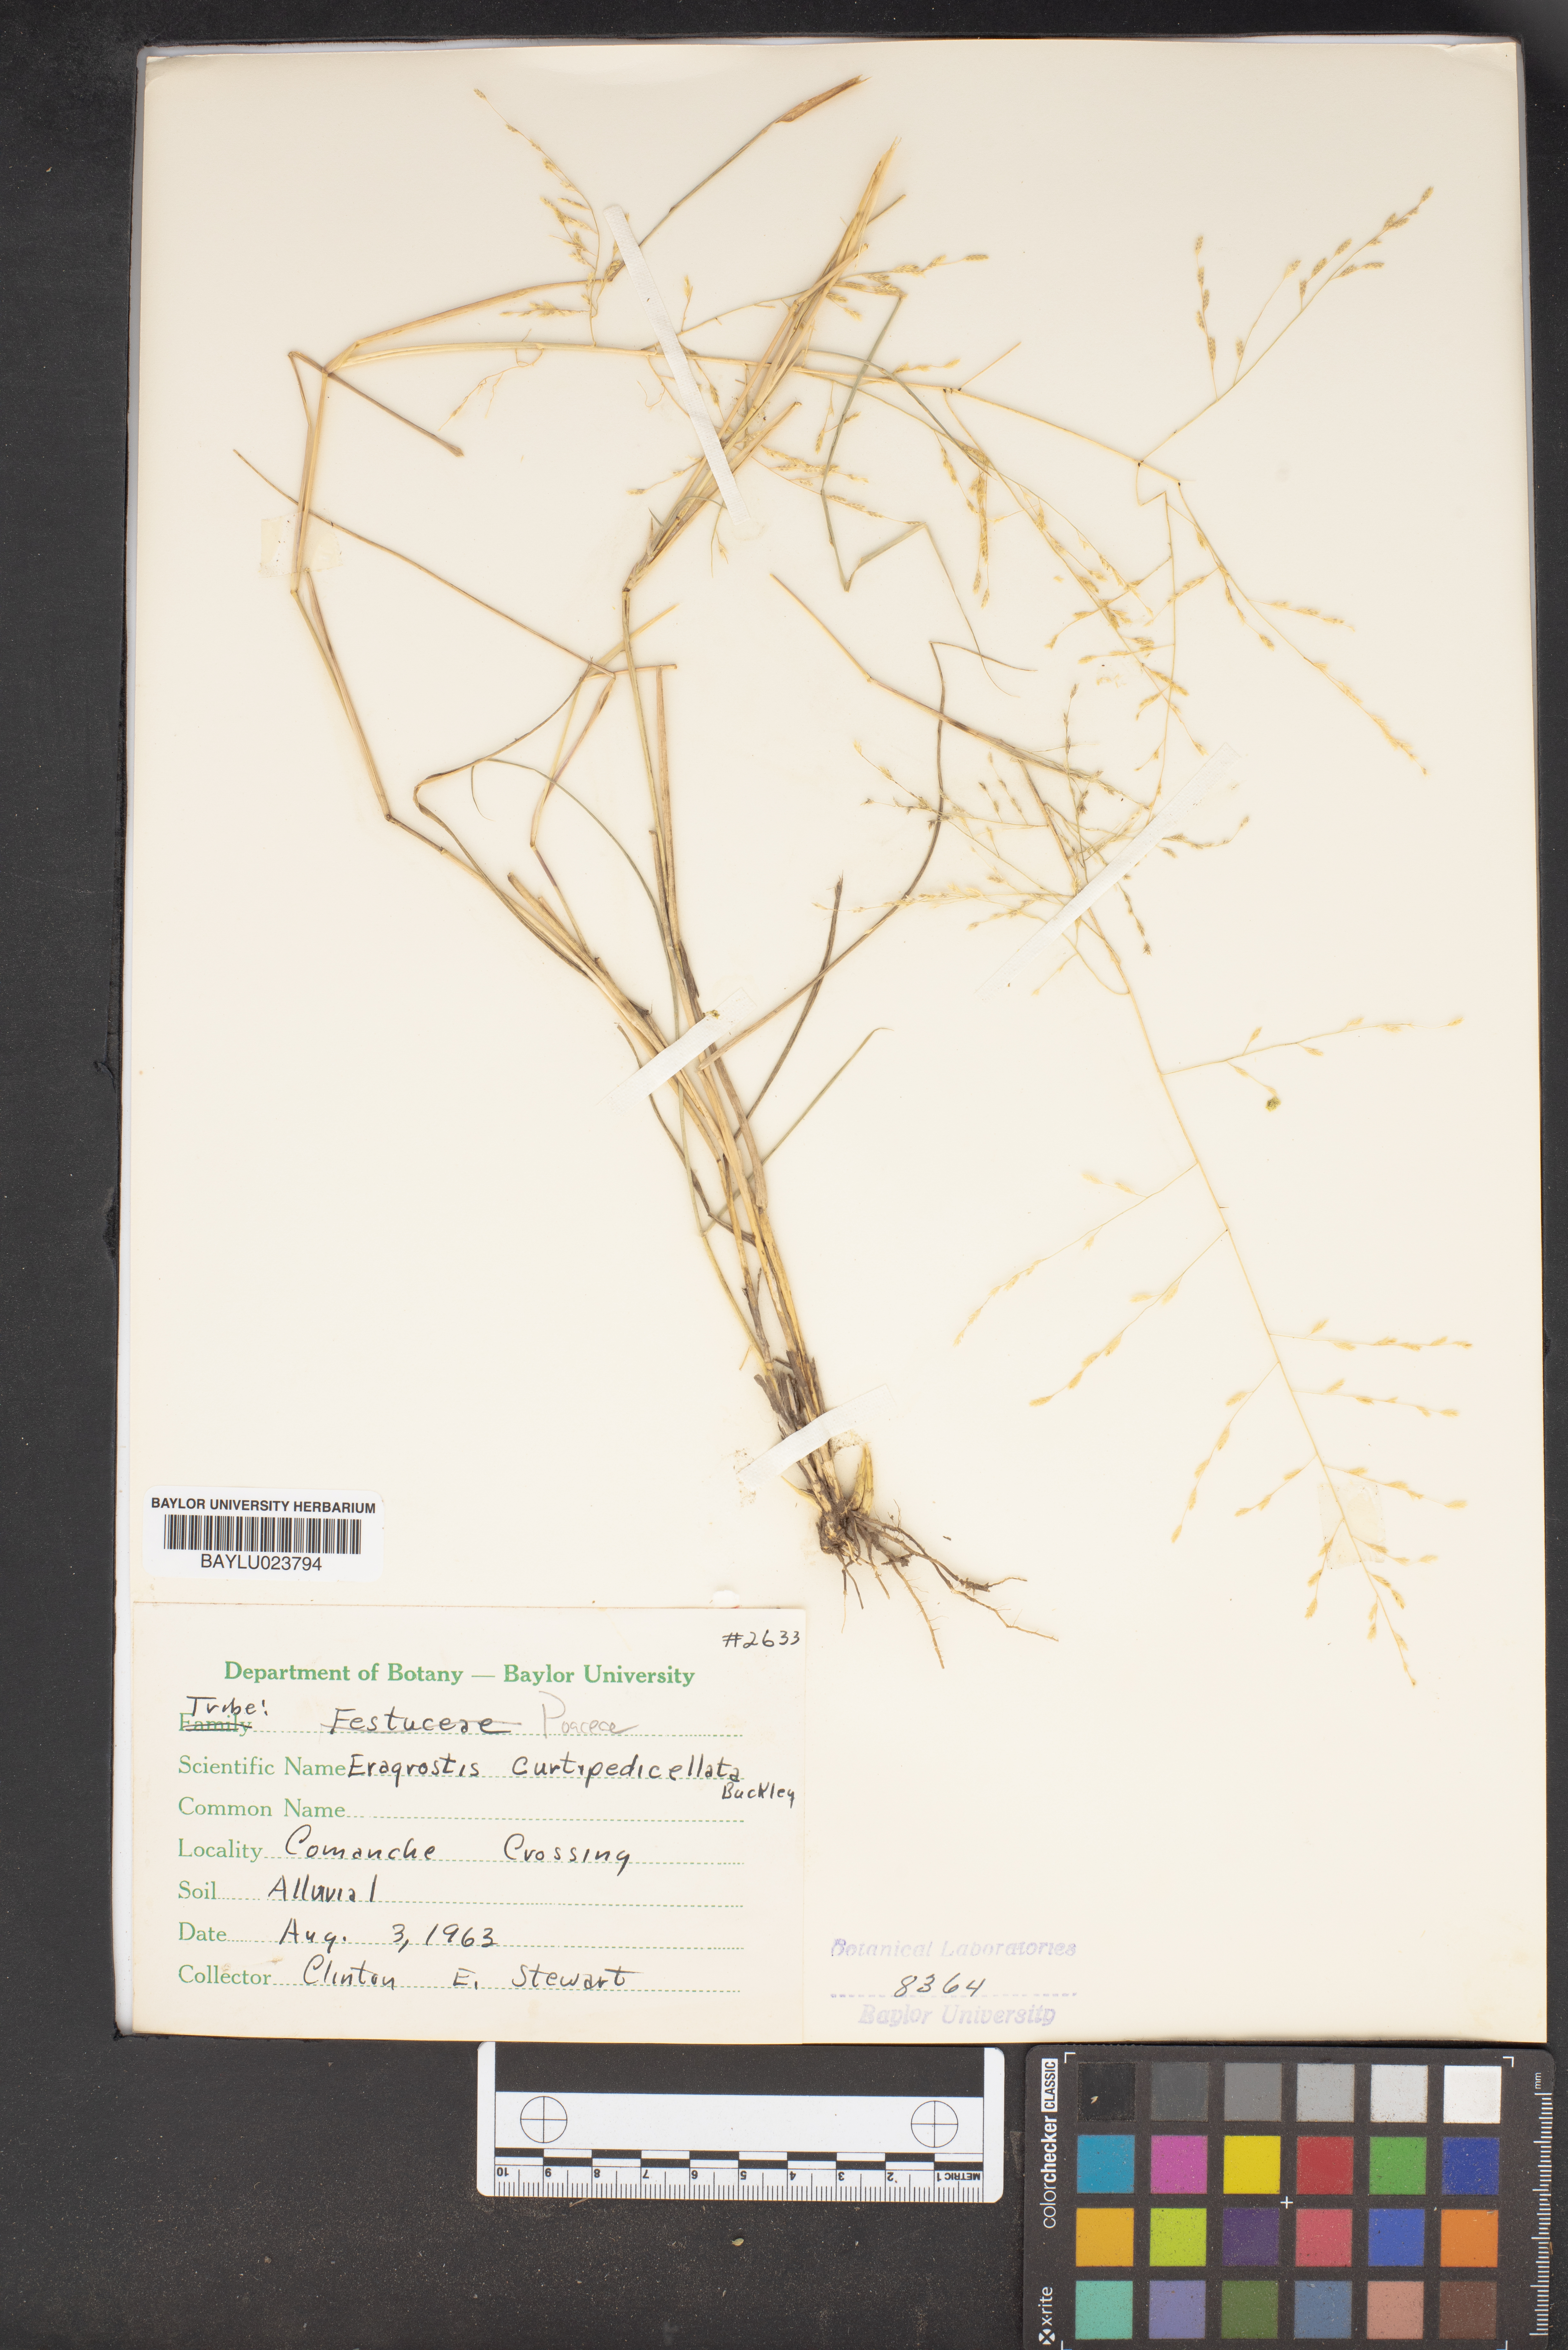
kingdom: Plantae
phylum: Tracheophyta
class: Liliopsida
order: Poales
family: Poaceae
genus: Eragrostis
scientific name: Eragrostis curtipedicellata
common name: Gummy love grass
